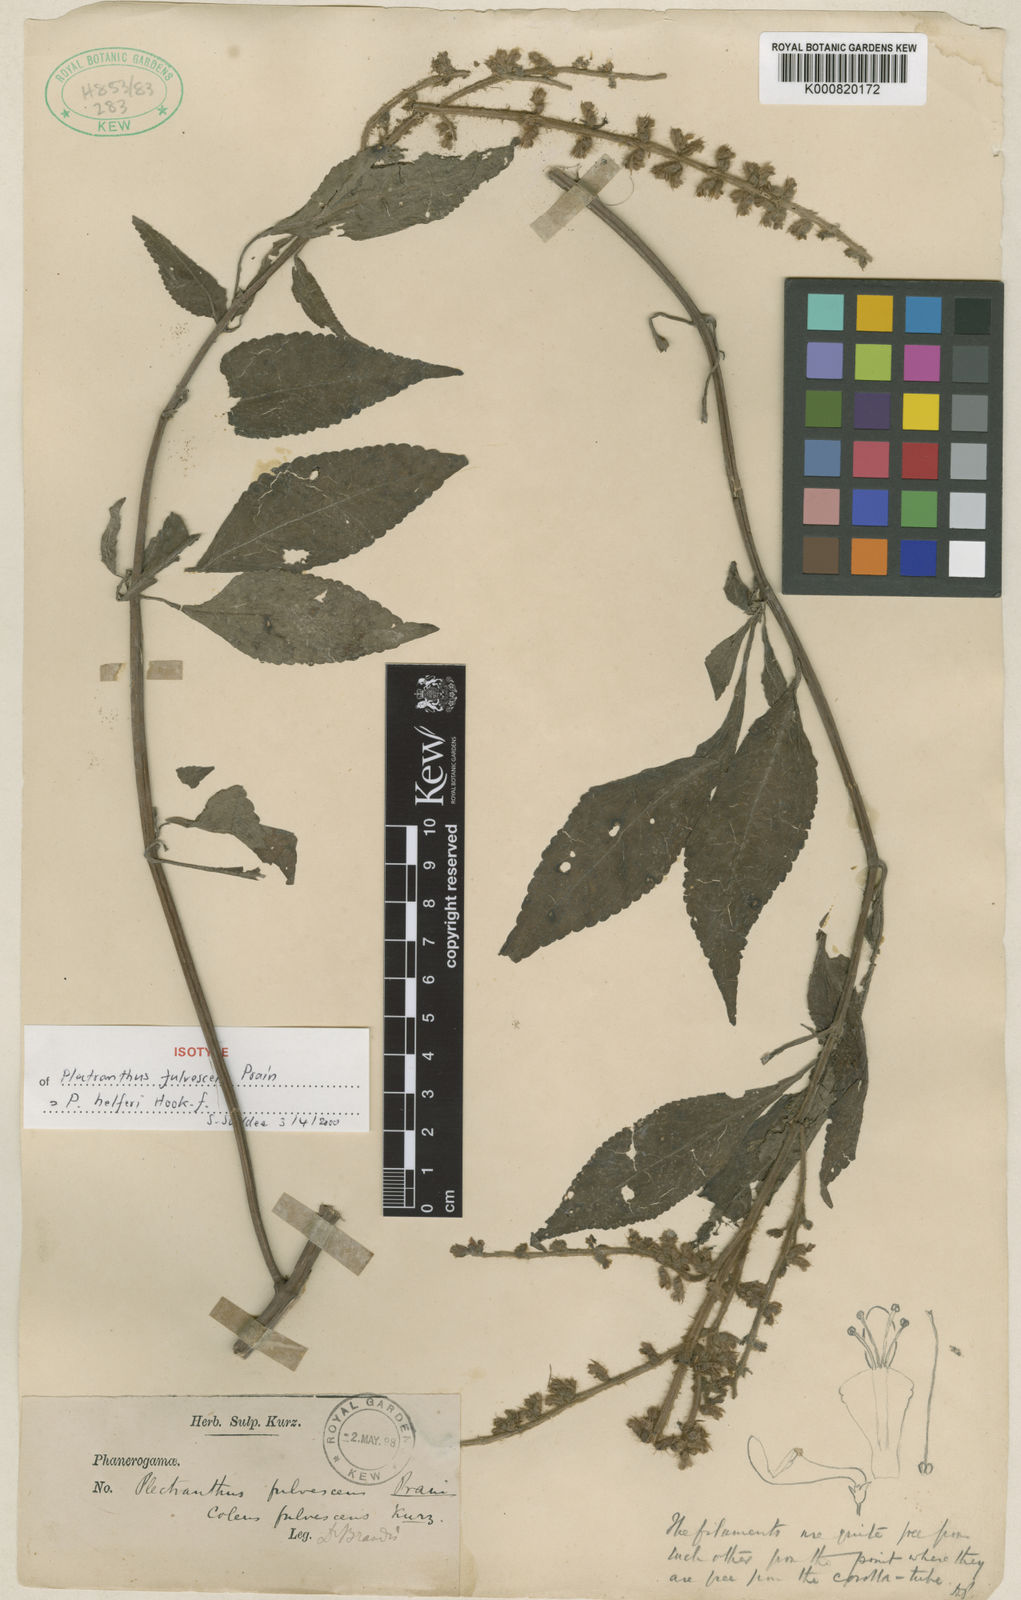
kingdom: Plantae
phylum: Tracheophyta
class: Magnoliopsida
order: Lamiales
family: Lamiaceae
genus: Coleus
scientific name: Coleus helferi
